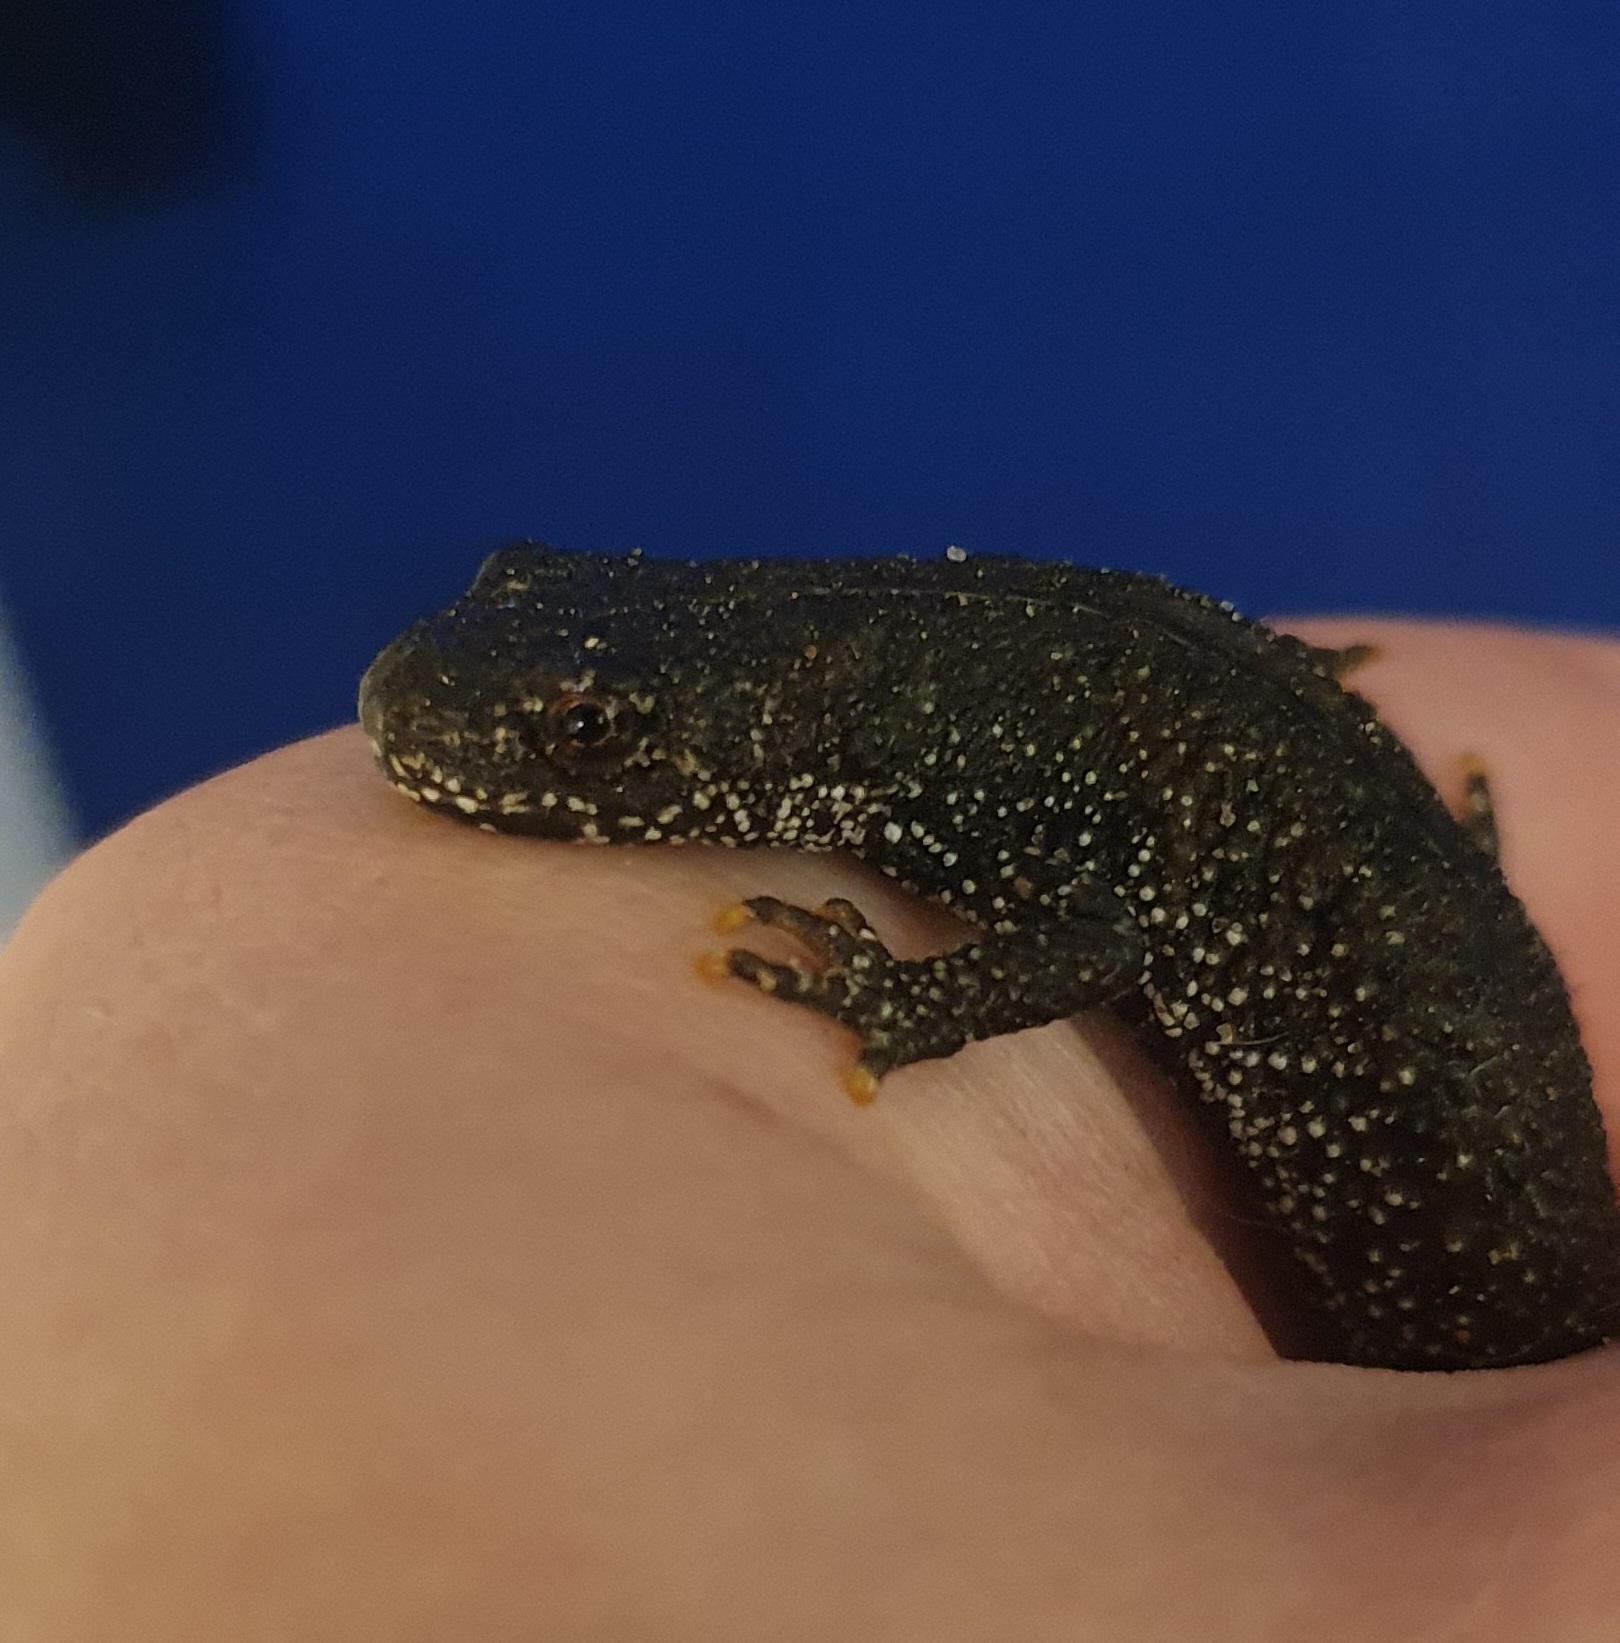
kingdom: Animalia
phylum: Chordata
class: Amphibia
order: Caudata
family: Salamandridae
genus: Triturus
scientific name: Triturus cristatus
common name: Stor vandsalamander
